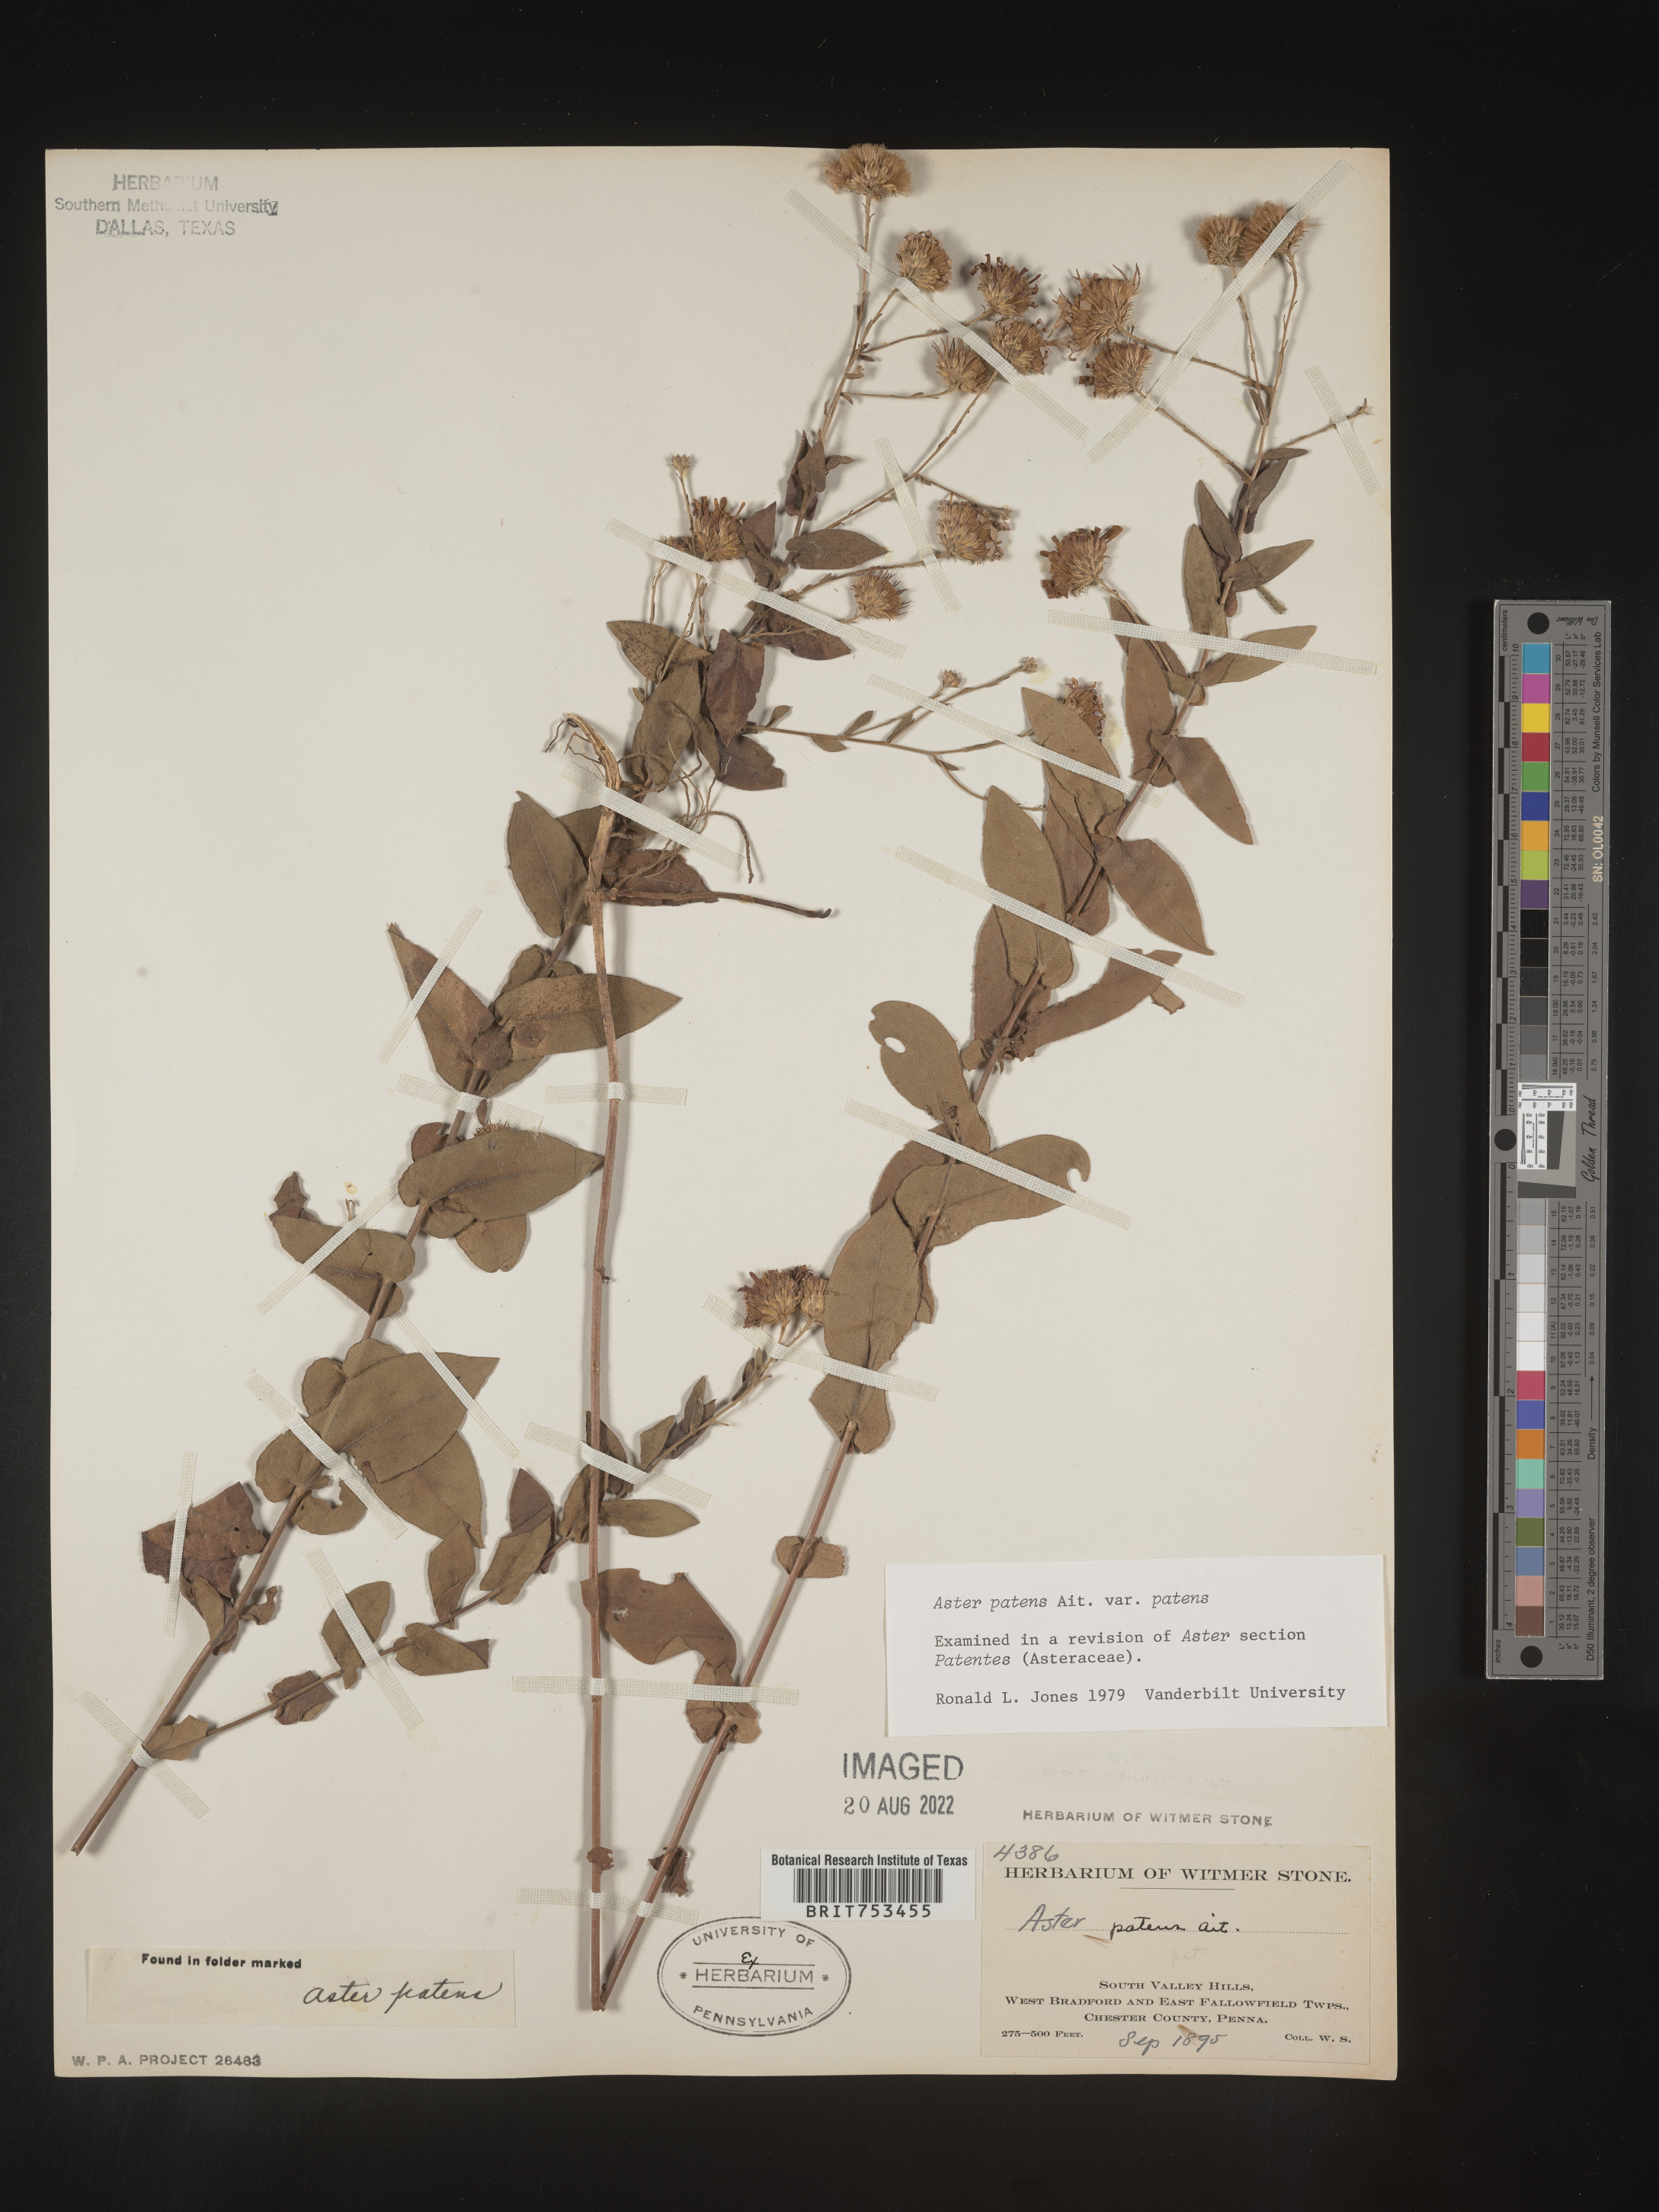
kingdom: Plantae
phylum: Tracheophyta
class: Magnoliopsida
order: Asterales
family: Asteraceae
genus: Symphyotrichum
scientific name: Symphyotrichum patens
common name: Late purple aster
